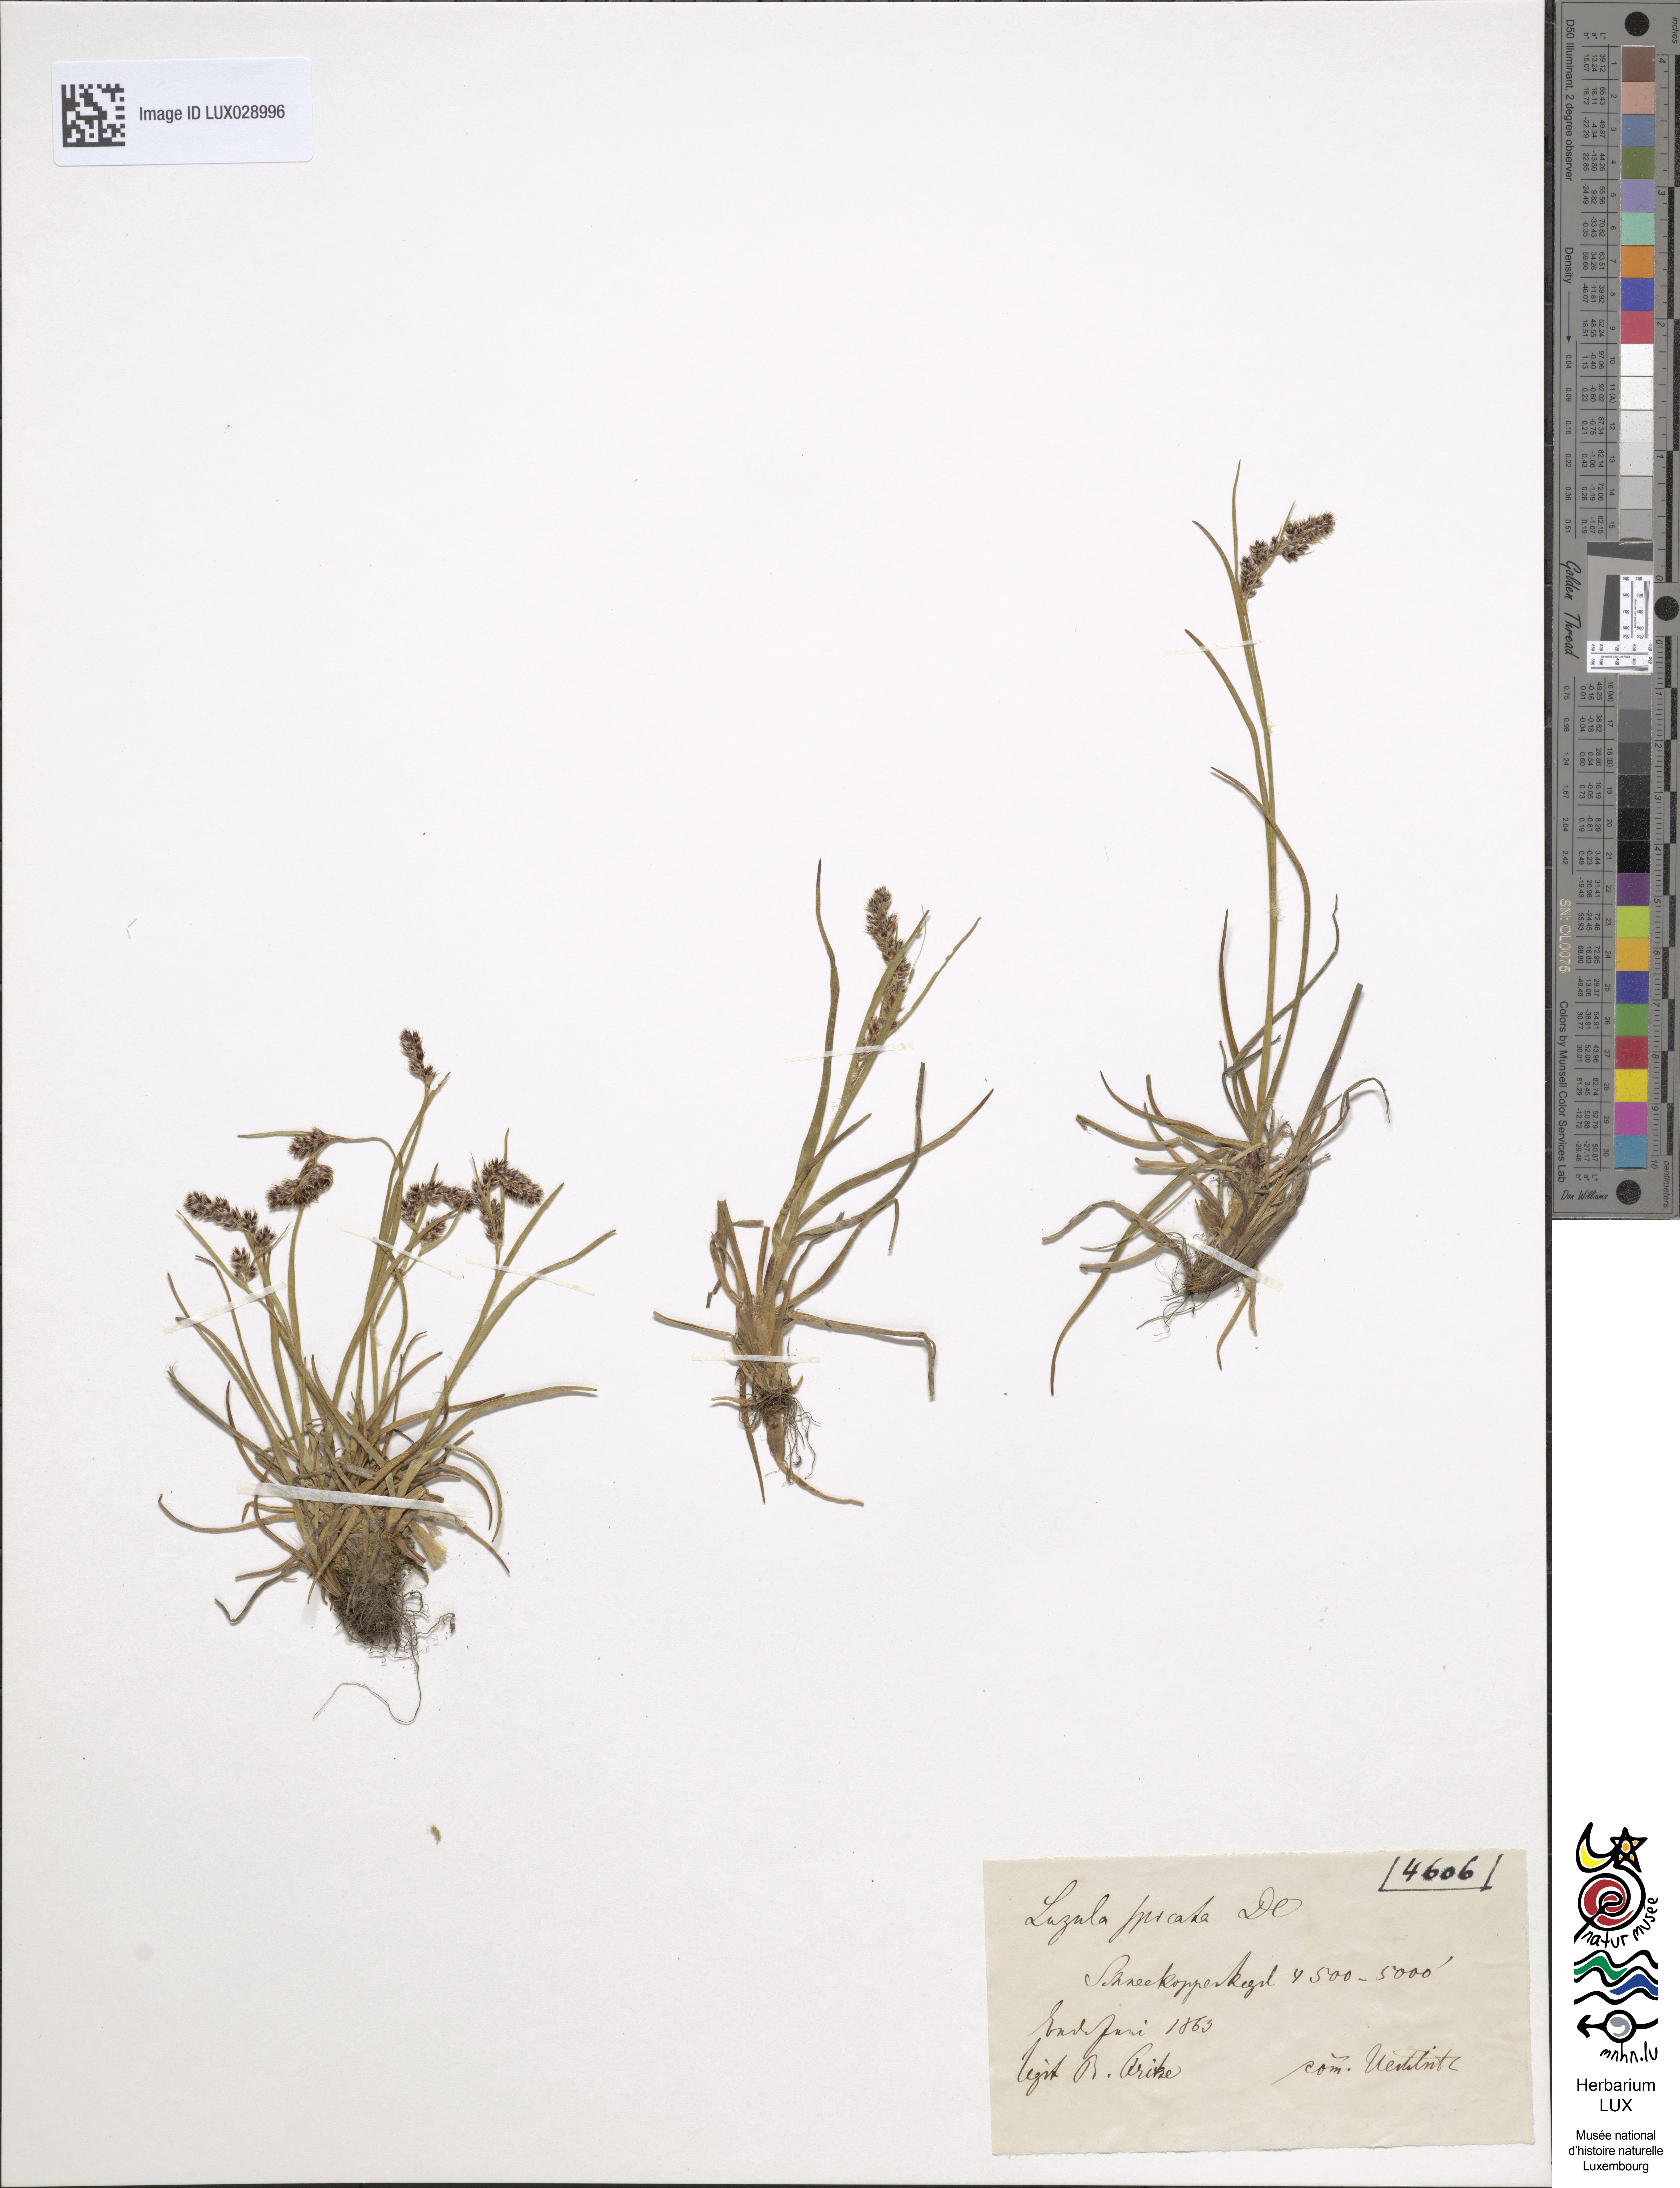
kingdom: Plantae
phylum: Tracheophyta
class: Liliopsida
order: Poales
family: Juncaceae
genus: Luzula
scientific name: Luzula spicata
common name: Spiked wood-rush
